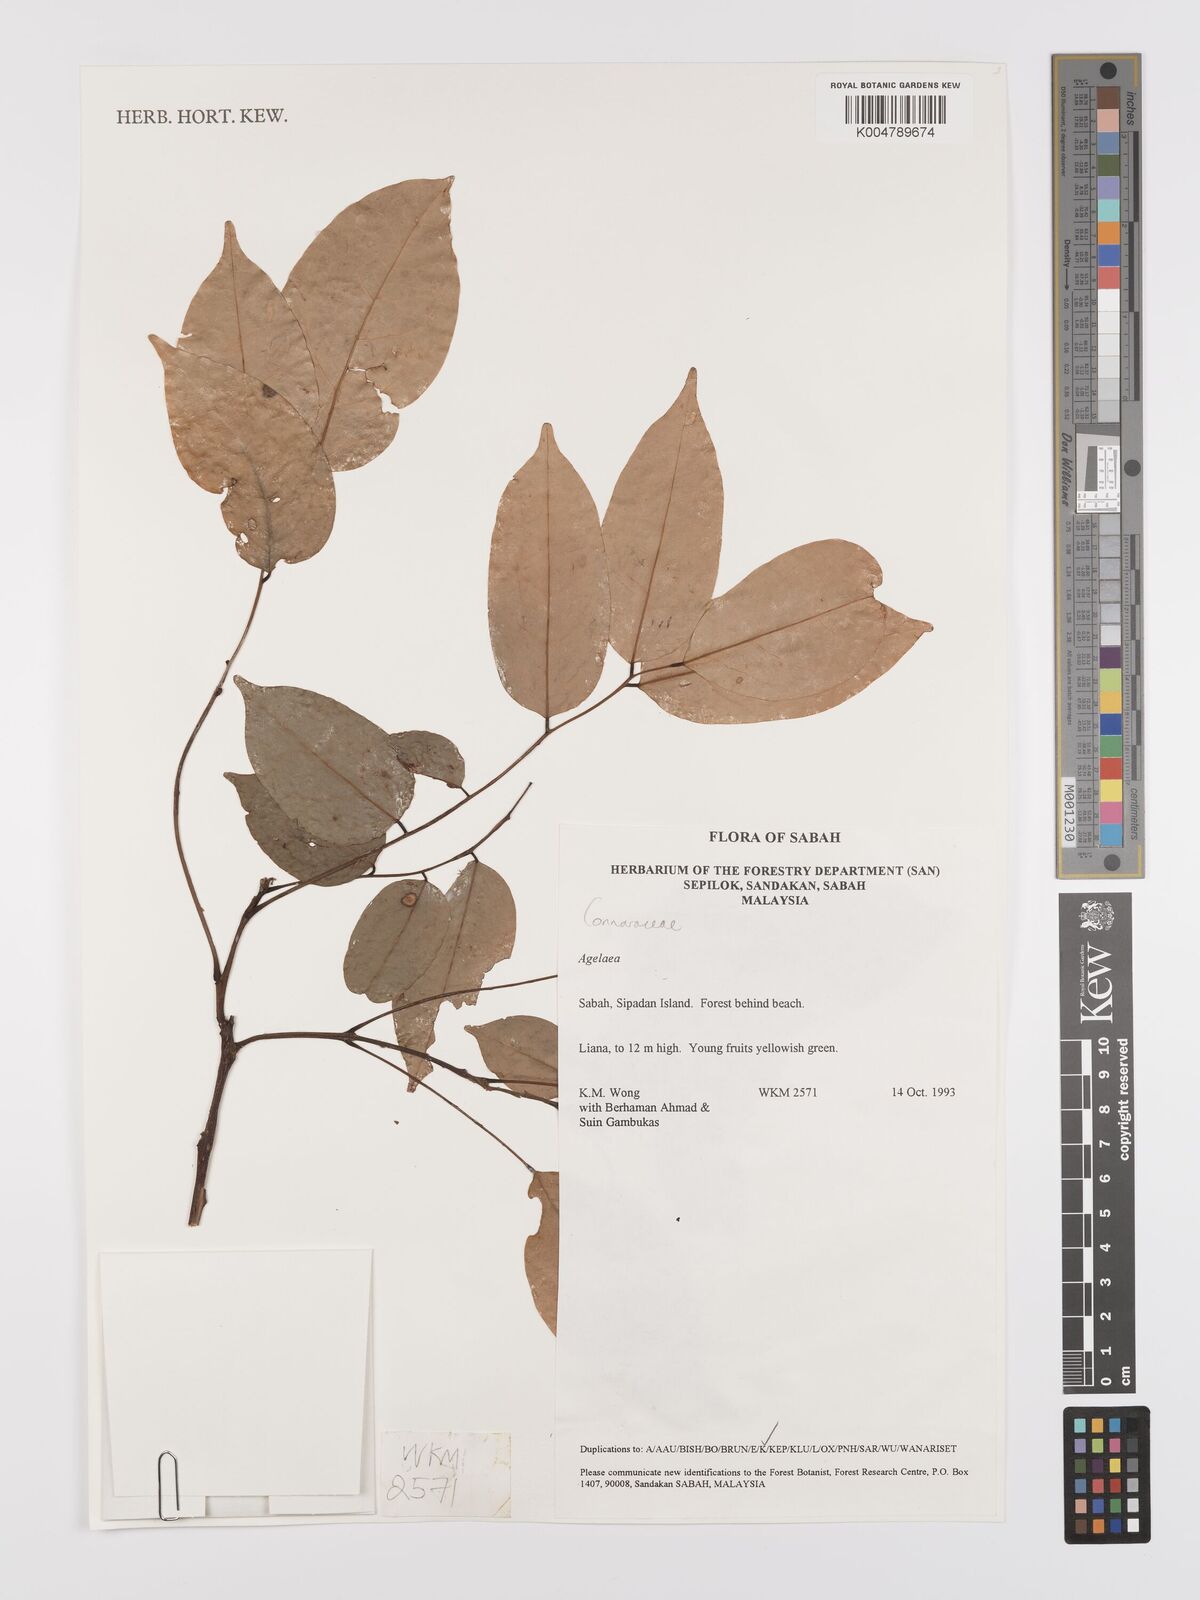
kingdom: Plantae
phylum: Tracheophyta
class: Magnoliopsida
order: Oxalidales
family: Connaraceae
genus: Agelaea
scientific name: Agelaea borneensis
